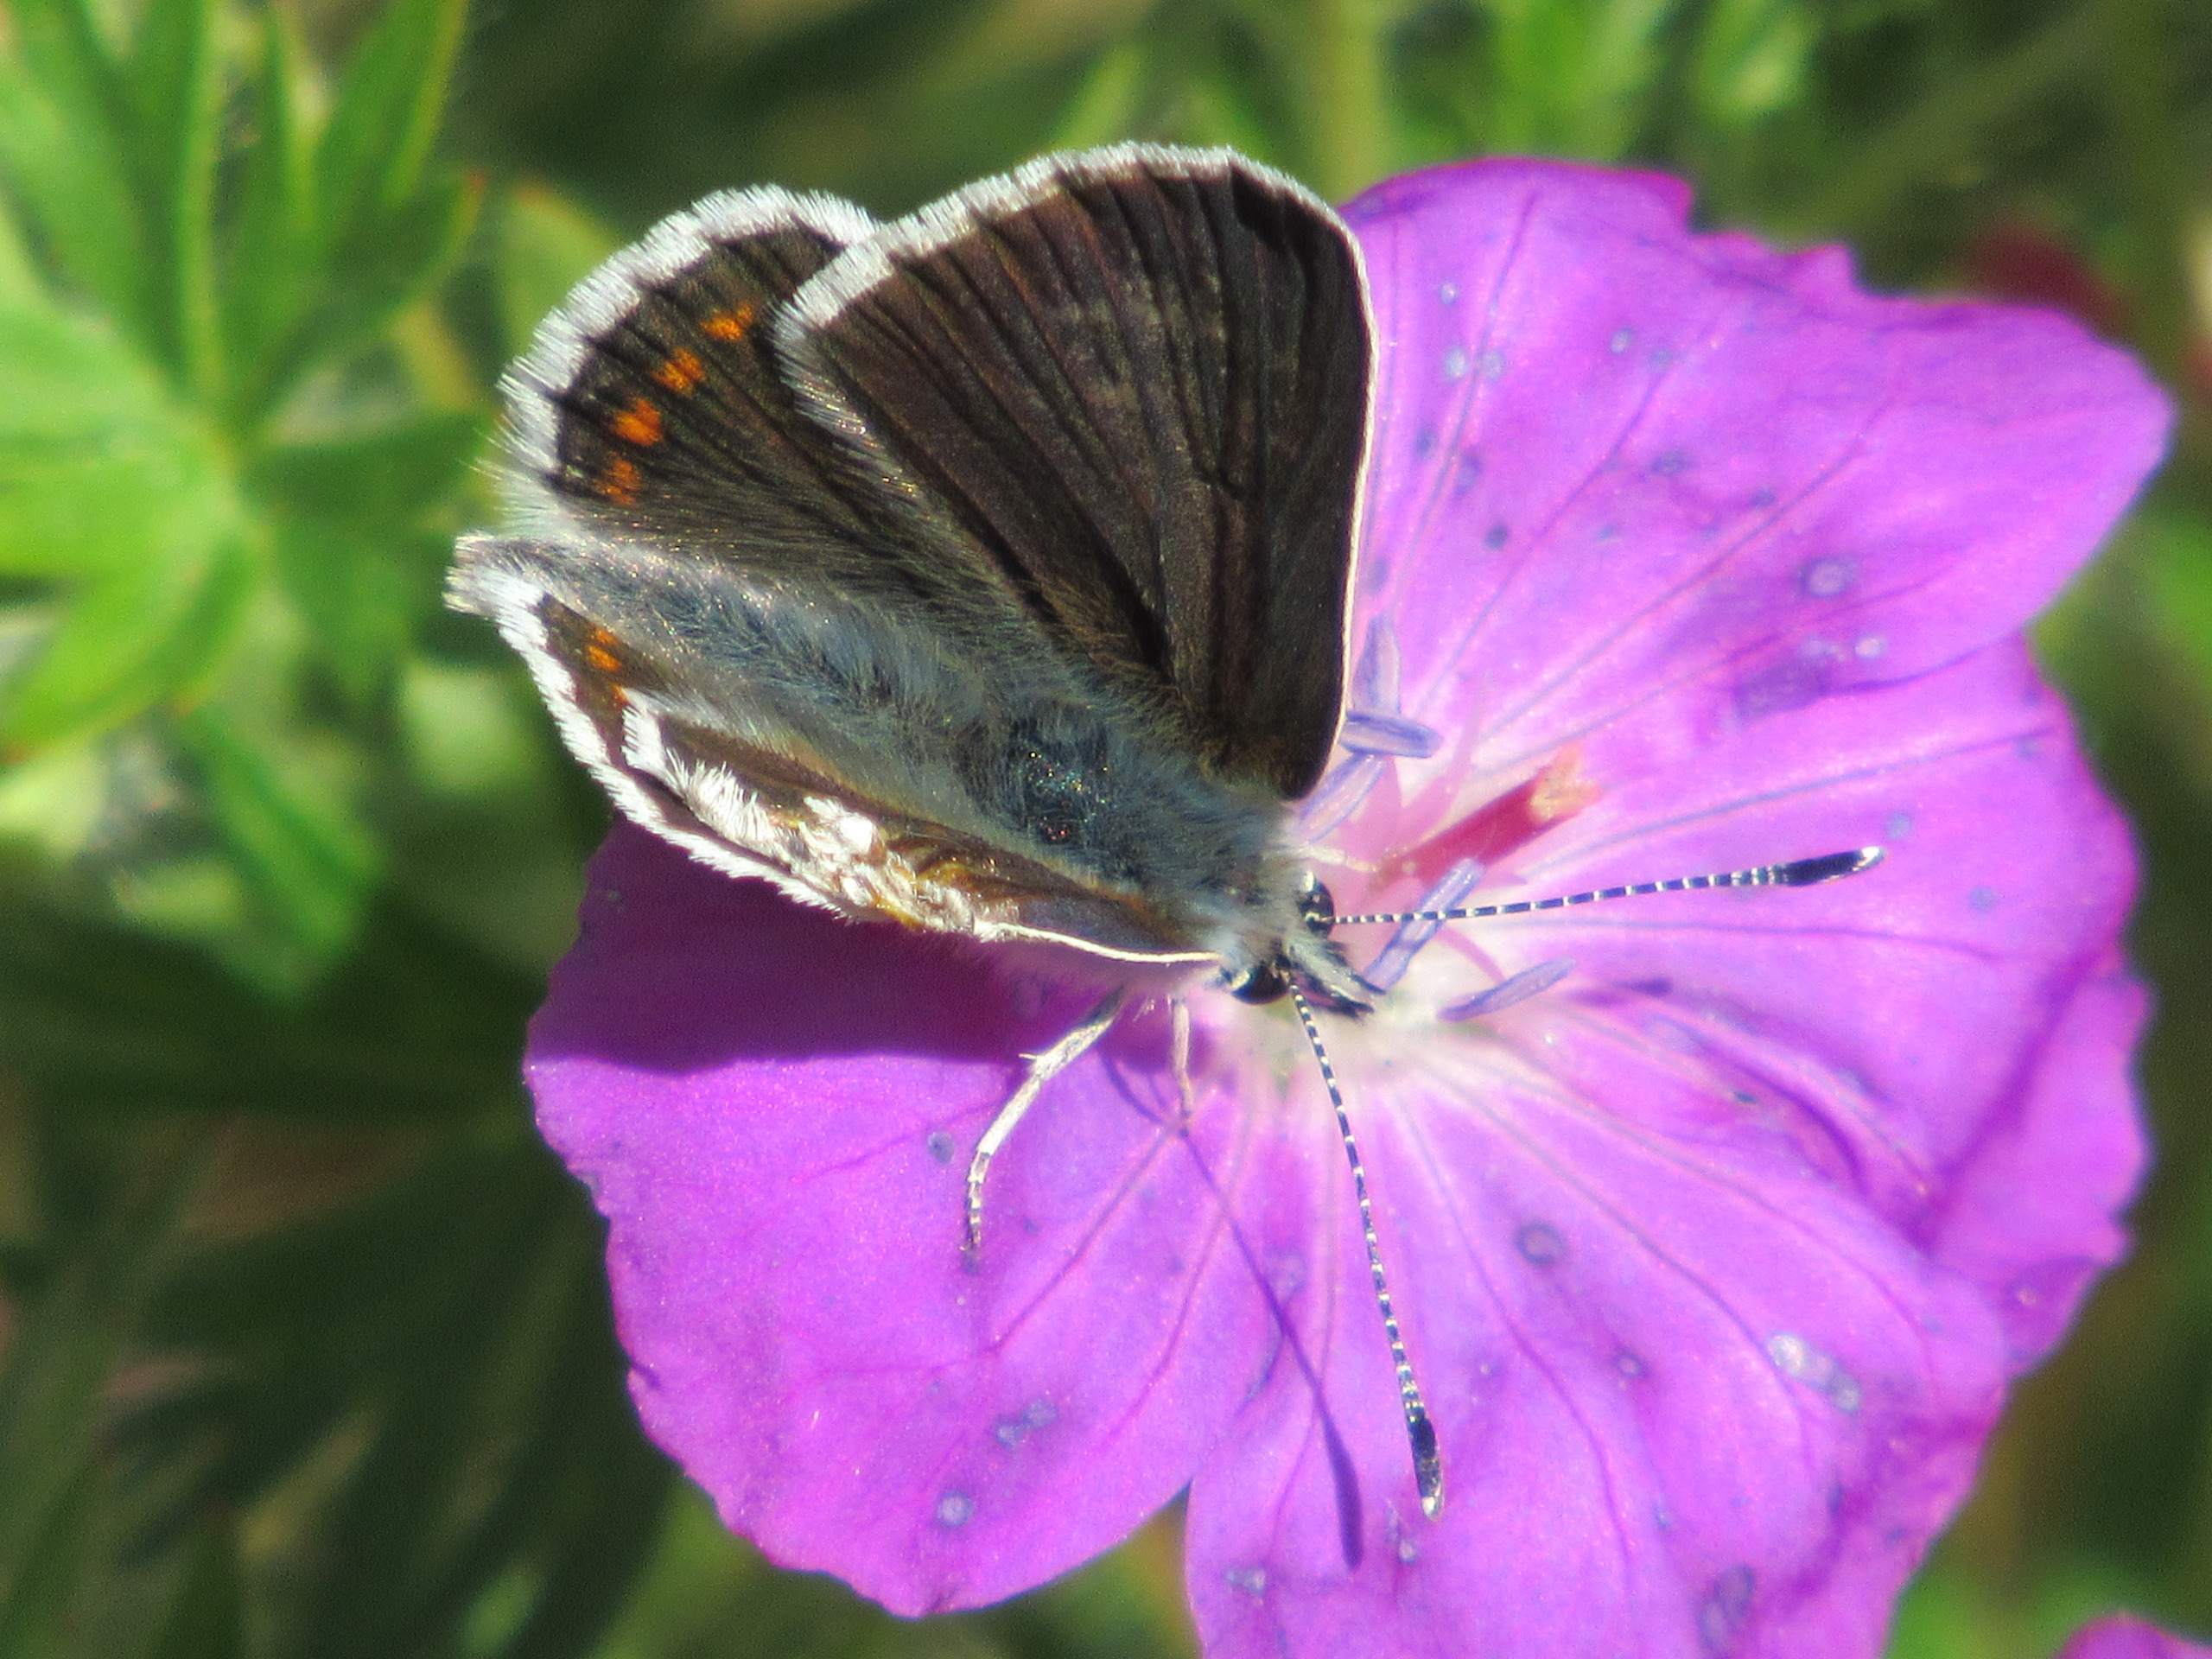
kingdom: Animalia
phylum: Arthropoda
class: Insecta
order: Lepidoptera
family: Lycaenidae
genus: Aricia
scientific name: Aricia artaxerxes
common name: Sortbrun blåfugl
